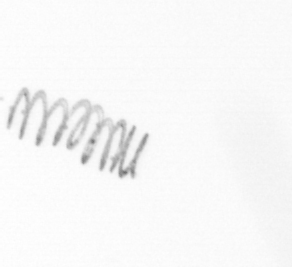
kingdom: Chromista
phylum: Ochrophyta
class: Bacillariophyceae
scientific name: Bacillariophyceae
